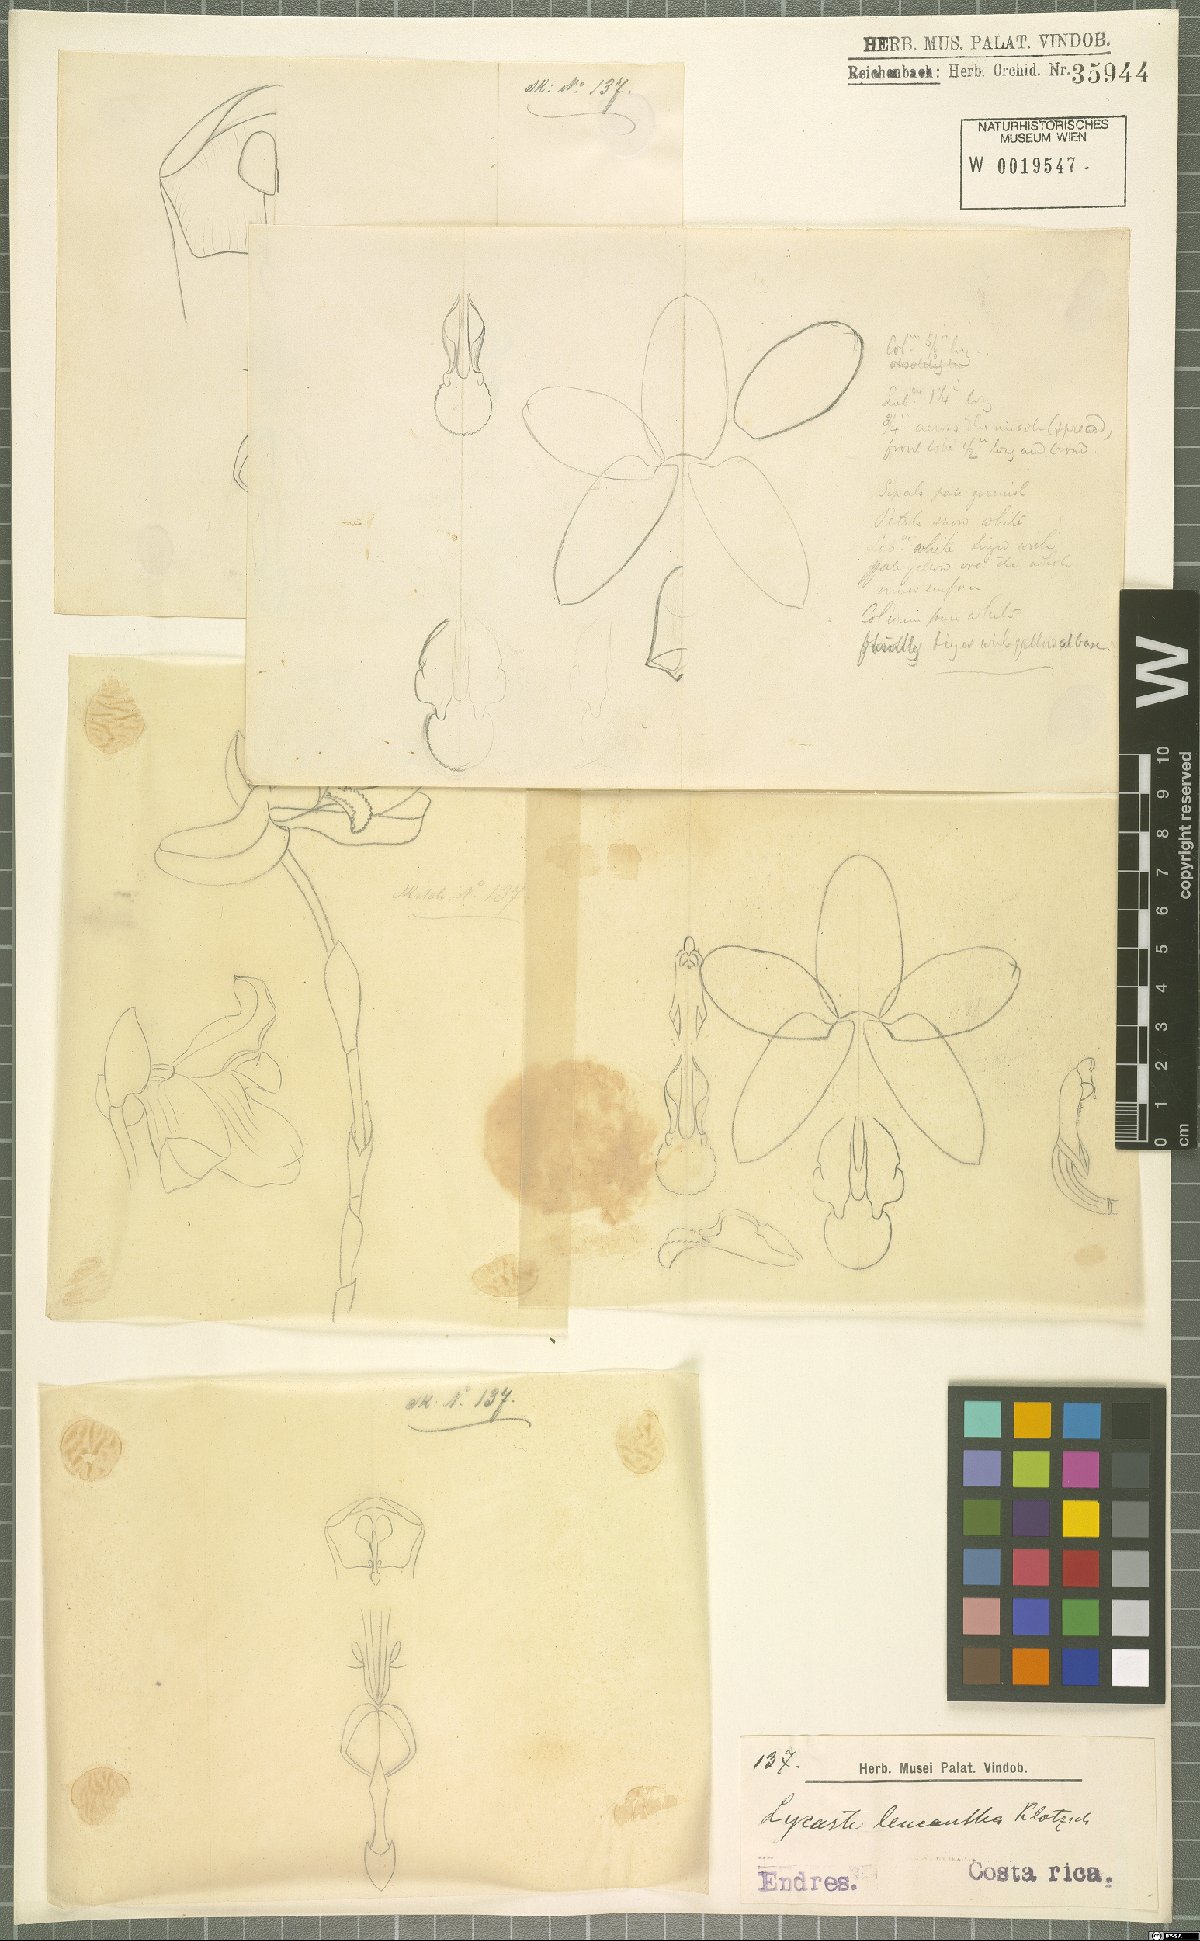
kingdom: Plantae
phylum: Tracheophyta
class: Liliopsida
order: Asparagales
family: Orchidaceae
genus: Lycaste
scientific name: Lycaste leucantha
